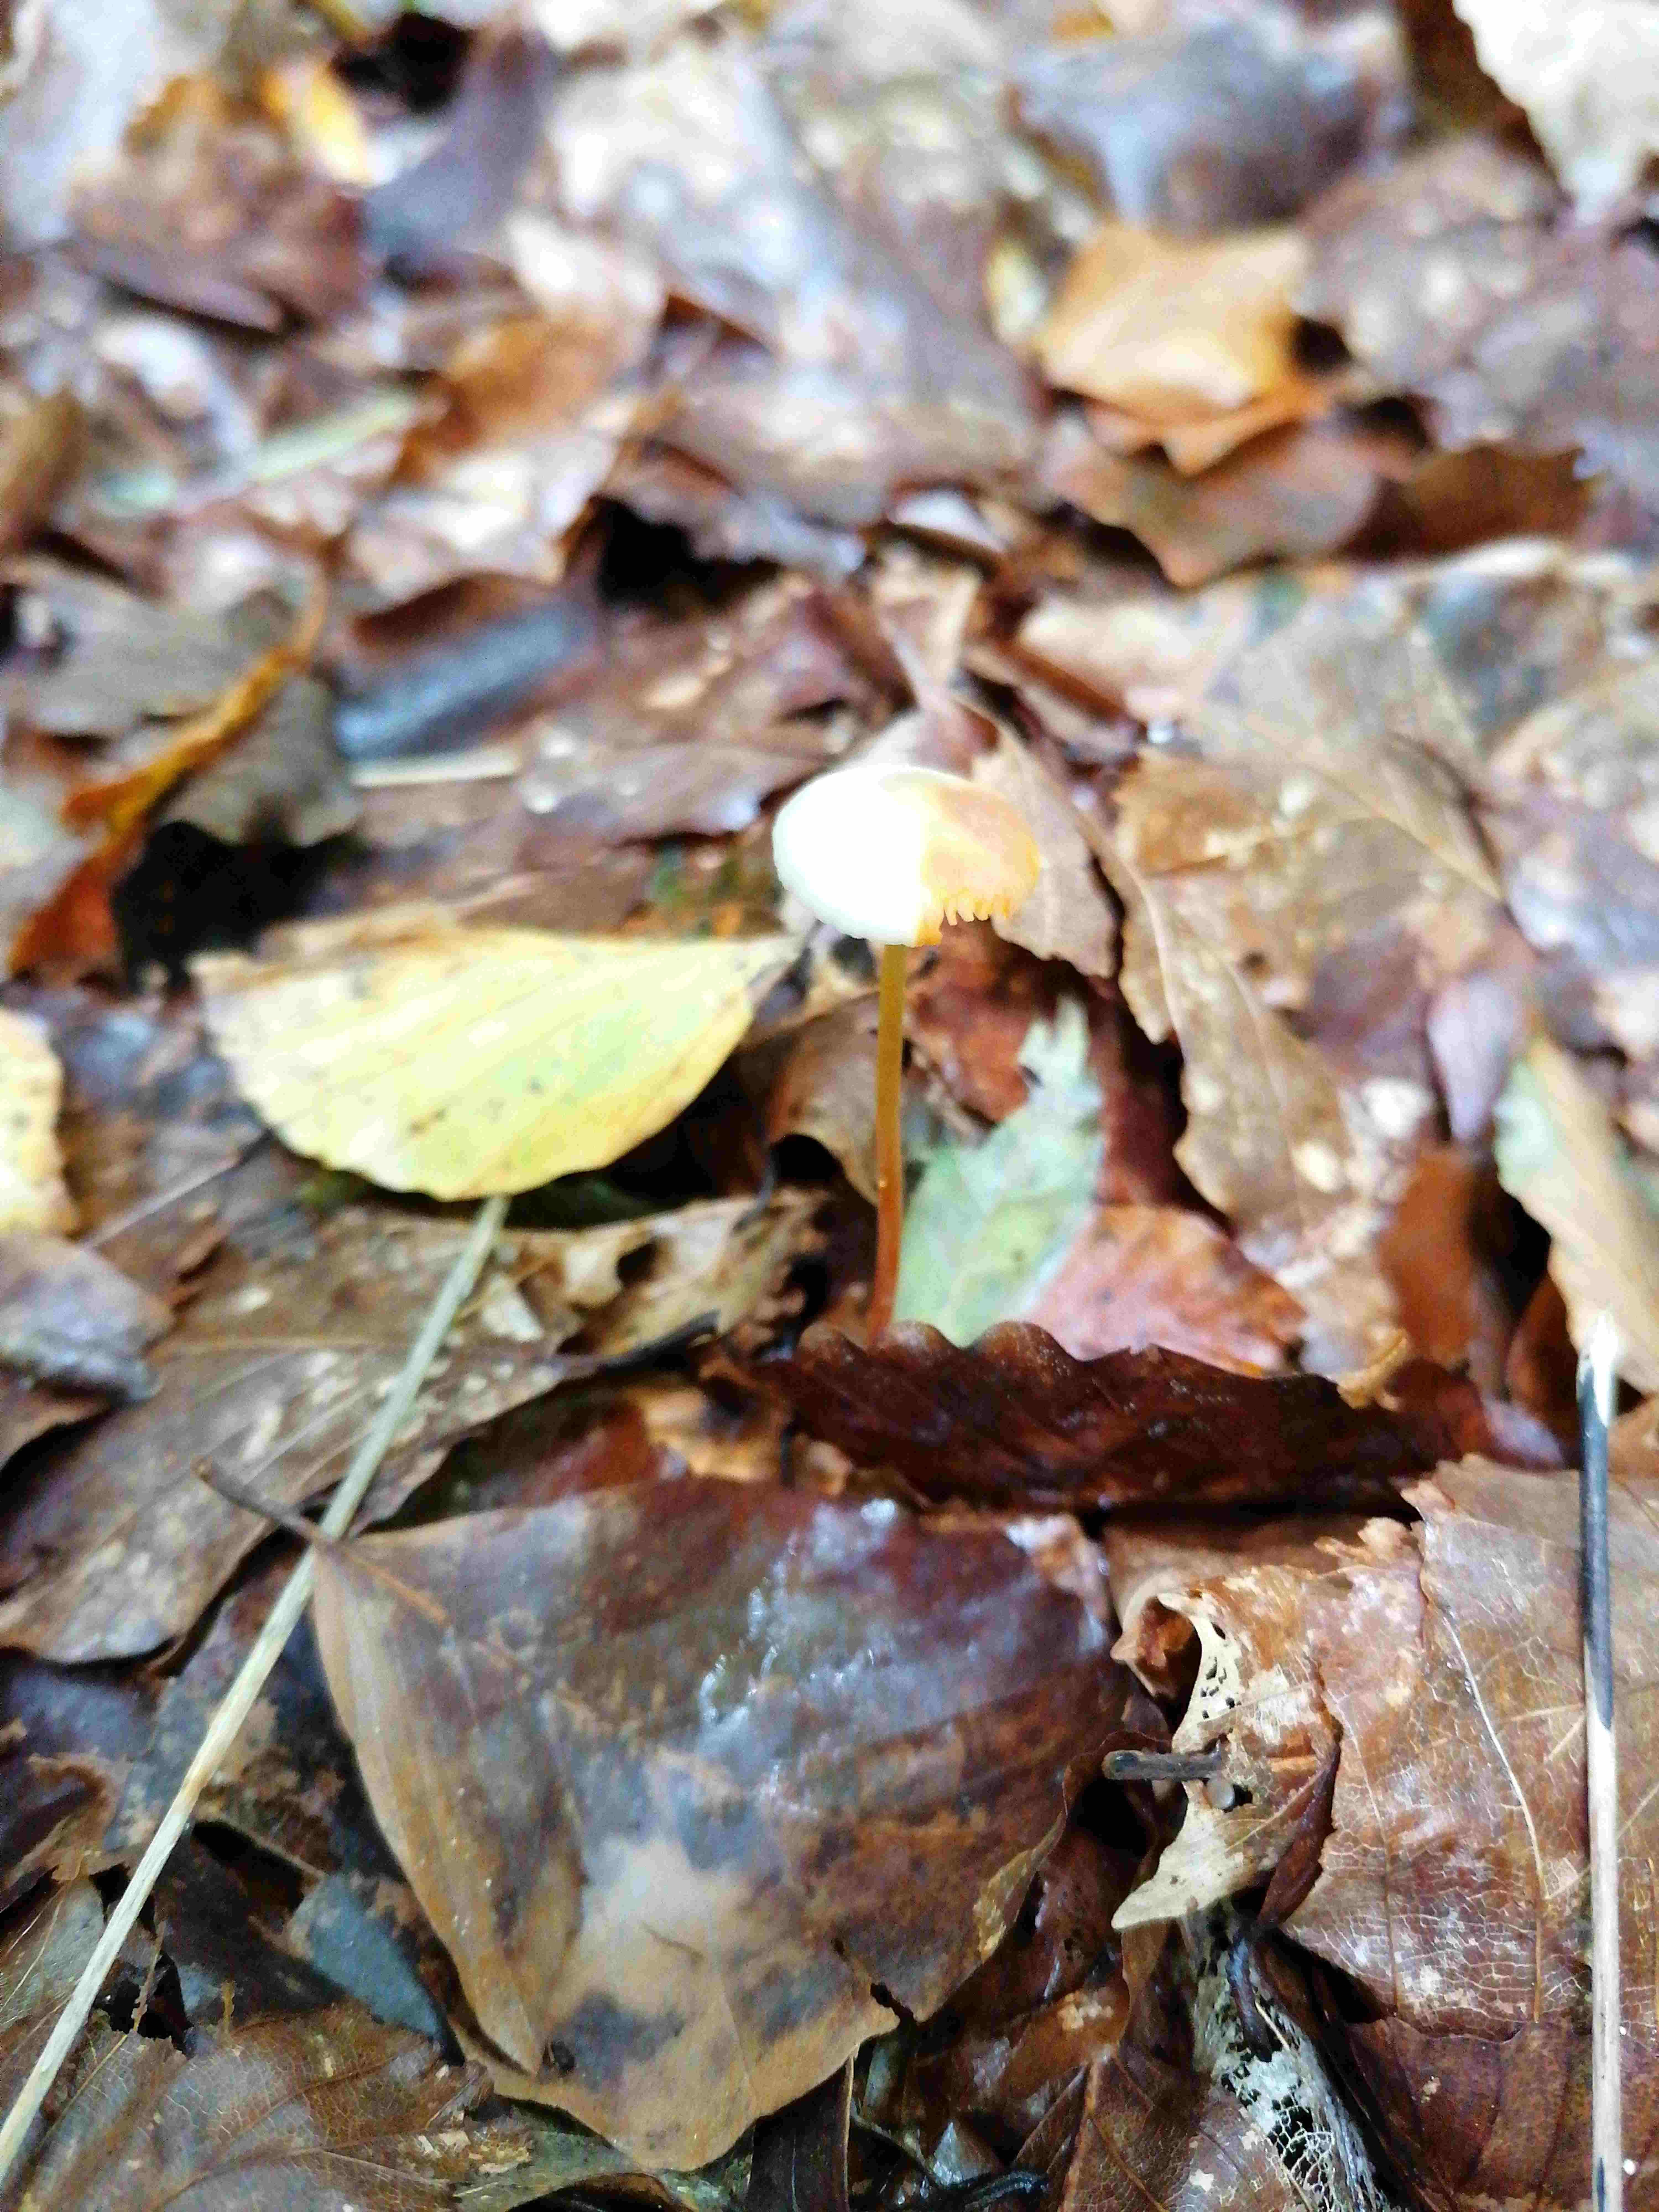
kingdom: Fungi
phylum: Basidiomycota
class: Agaricomycetes
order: Agaricales
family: Mycenaceae
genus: Mycena
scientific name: Mycena crocata
